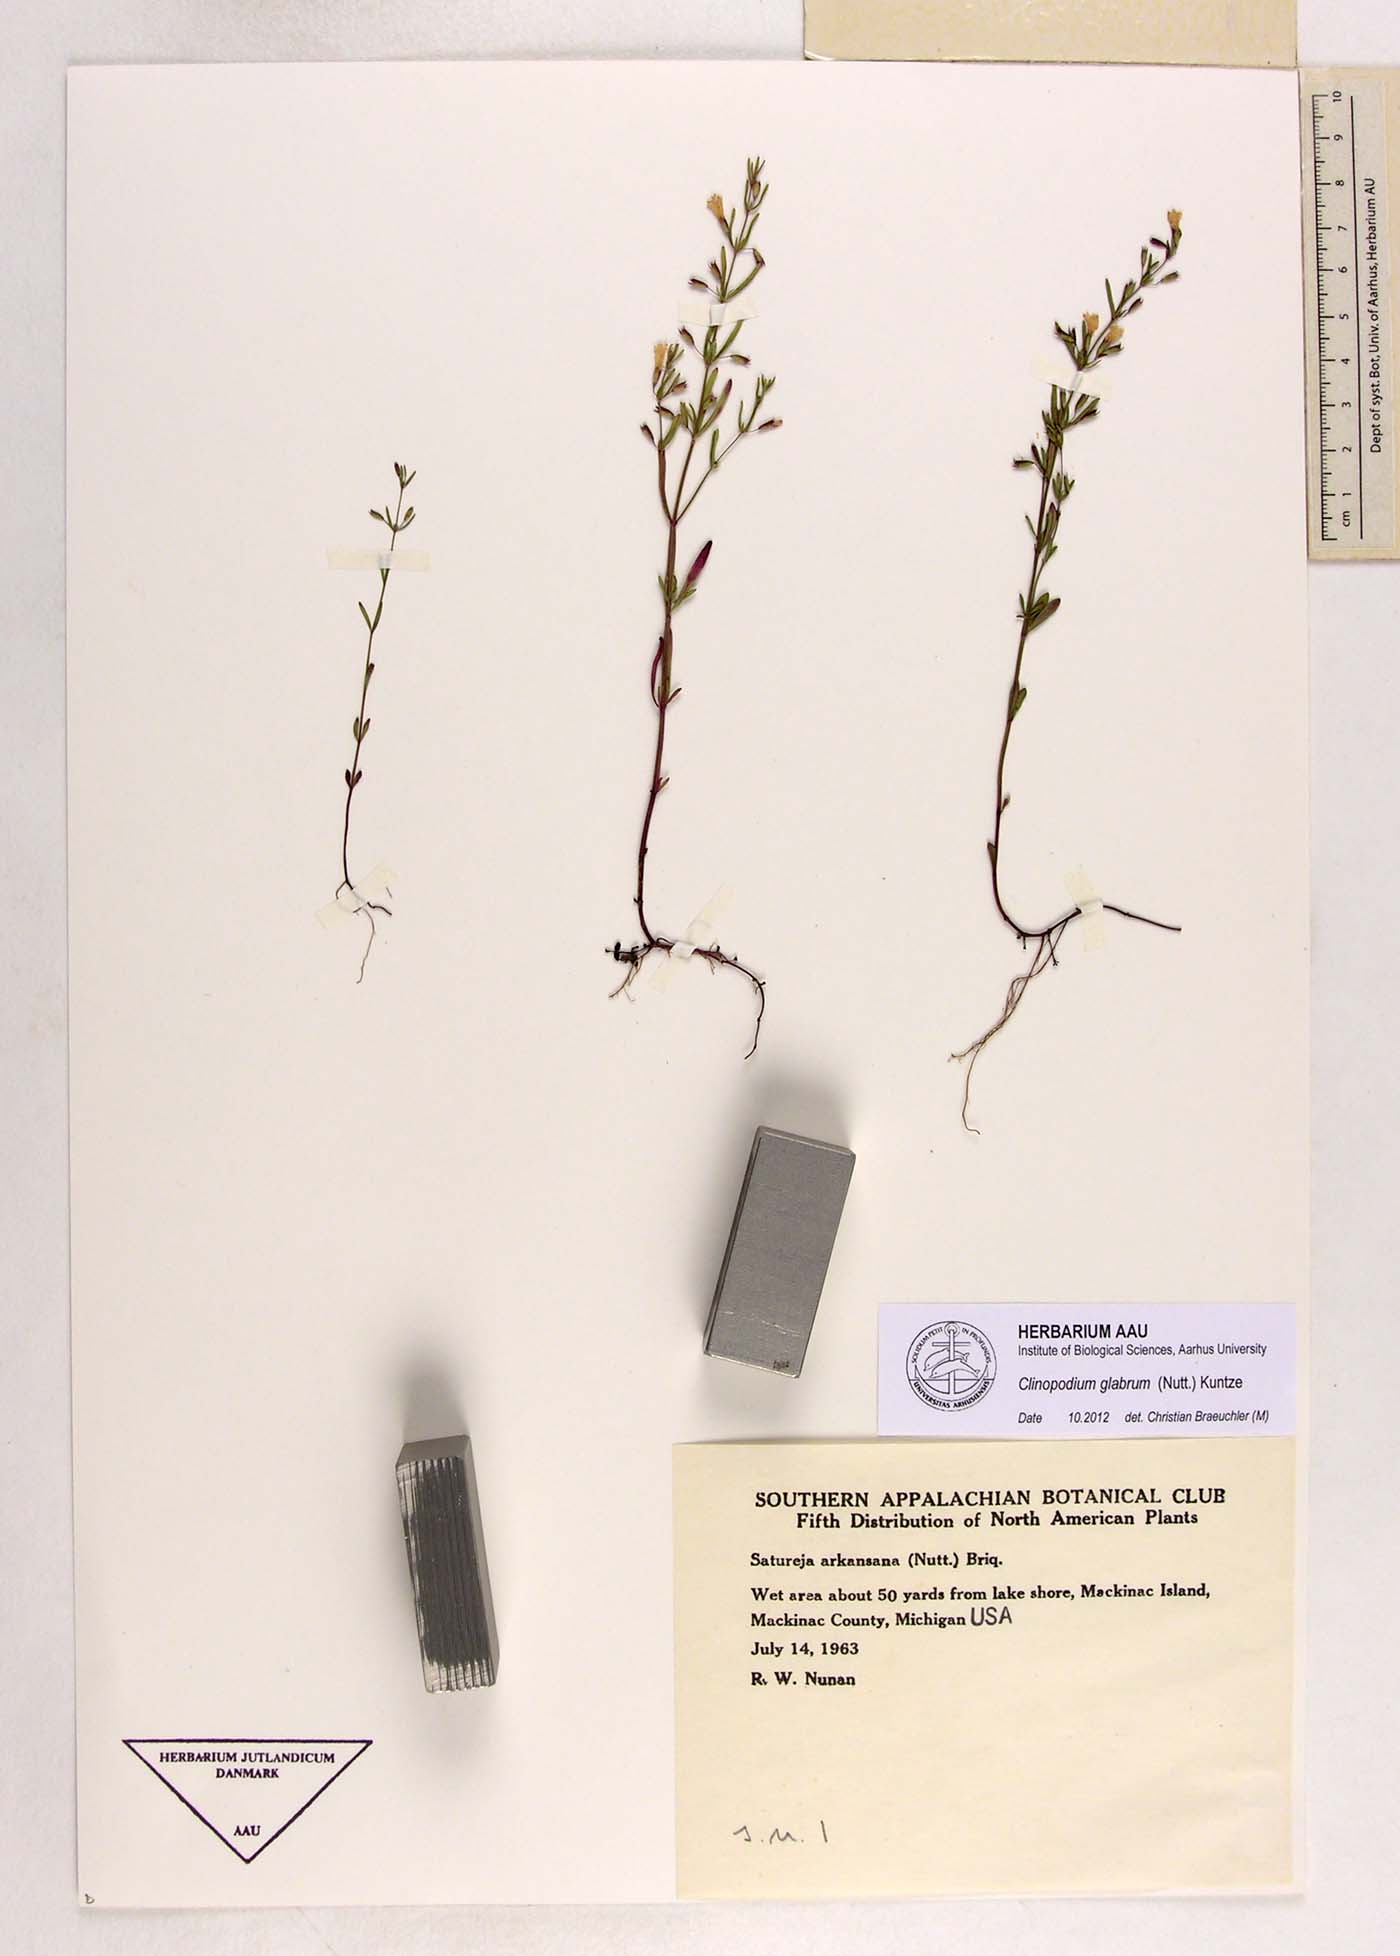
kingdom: Plantae
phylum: Tracheophyta
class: Magnoliopsida
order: Lamiales
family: Lamiaceae
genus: Hedeoma
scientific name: Hedeoma glabra
